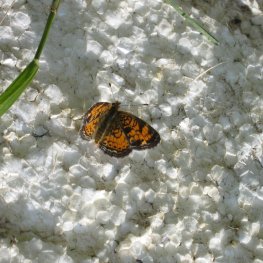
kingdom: Animalia
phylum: Arthropoda
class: Insecta
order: Lepidoptera
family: Nymphalidae
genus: Phyciodes
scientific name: Phyciodes tharos
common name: Pearl Crescent
